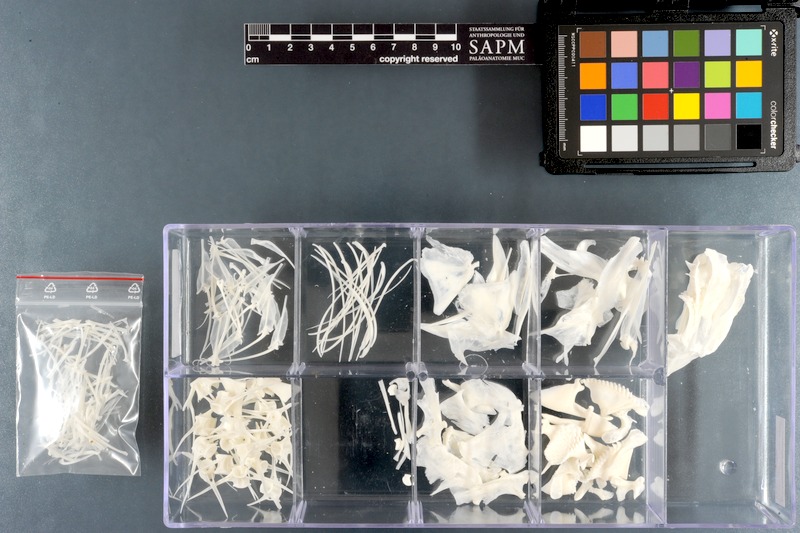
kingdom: Animalia
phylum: Chordata
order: Perciformes
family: Scaridae
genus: Chlorurus
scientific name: Chlorurus sordidus
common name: Bullethead parrotfish
